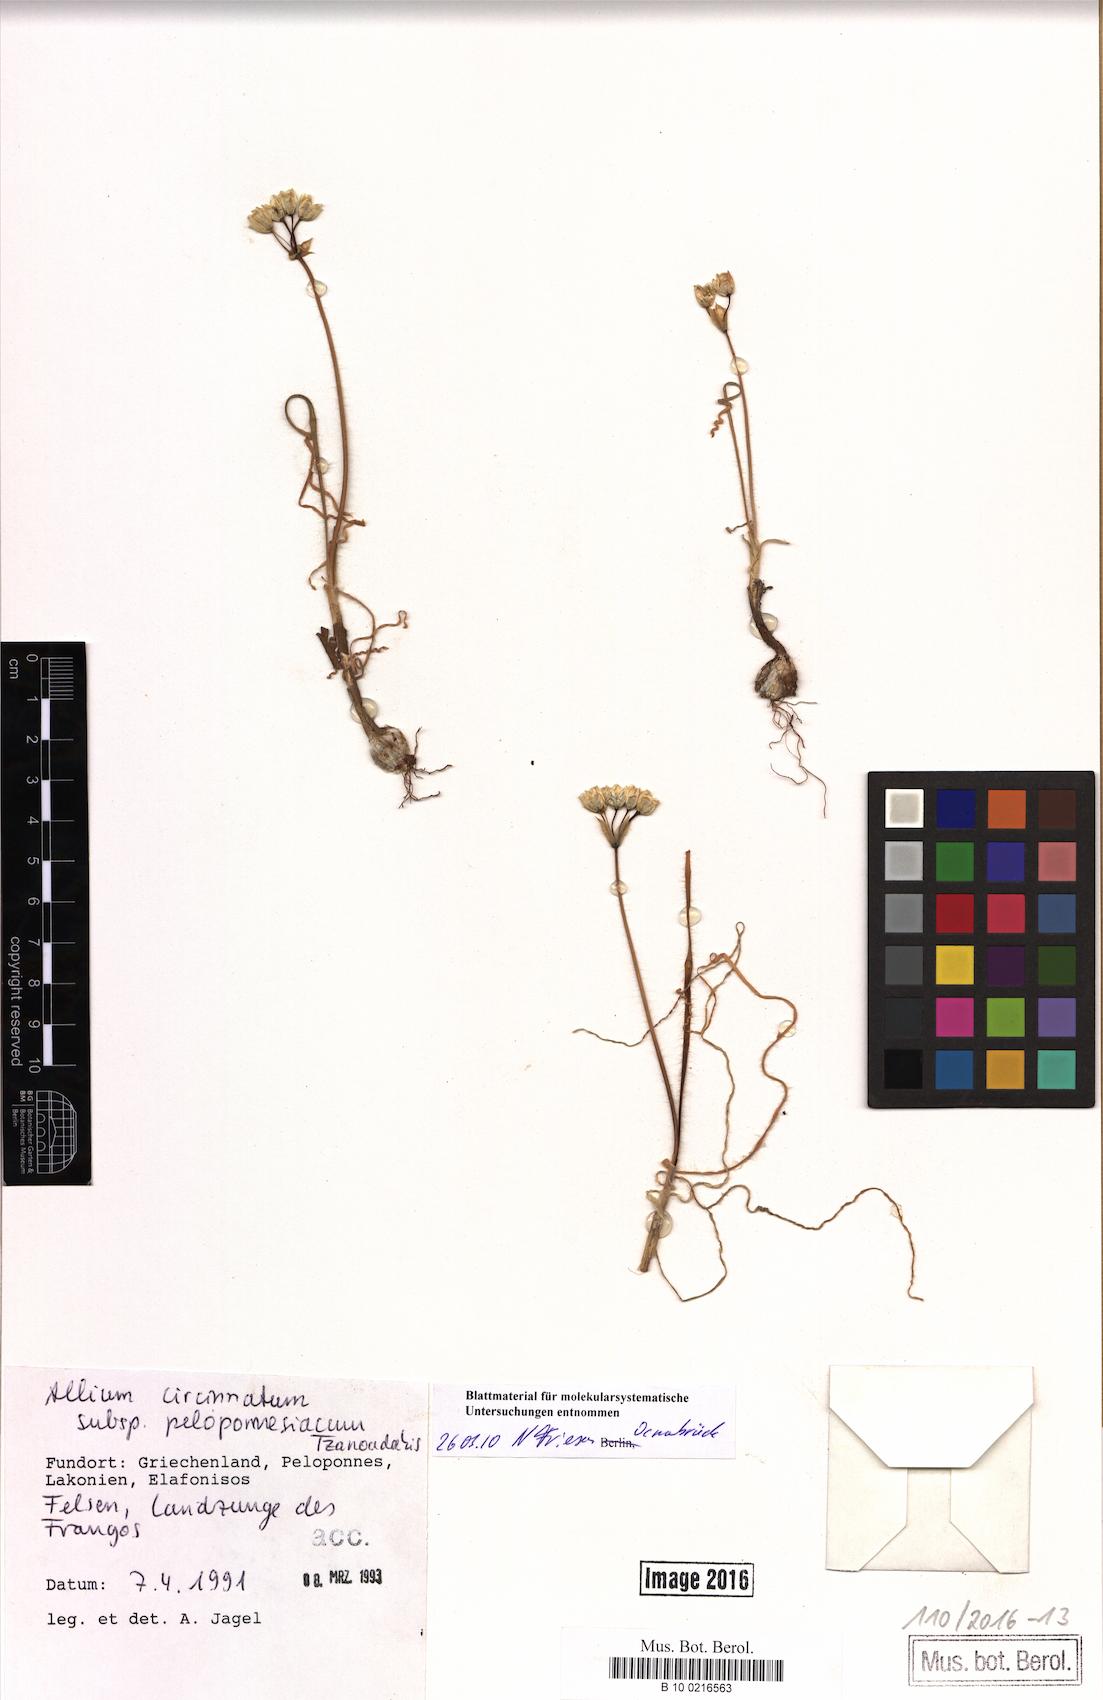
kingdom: Plantae
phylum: Tracheophyta
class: Liliopsida
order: Asparagales
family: Amaryllidaceae
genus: Allium
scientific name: Allium circinnatum
